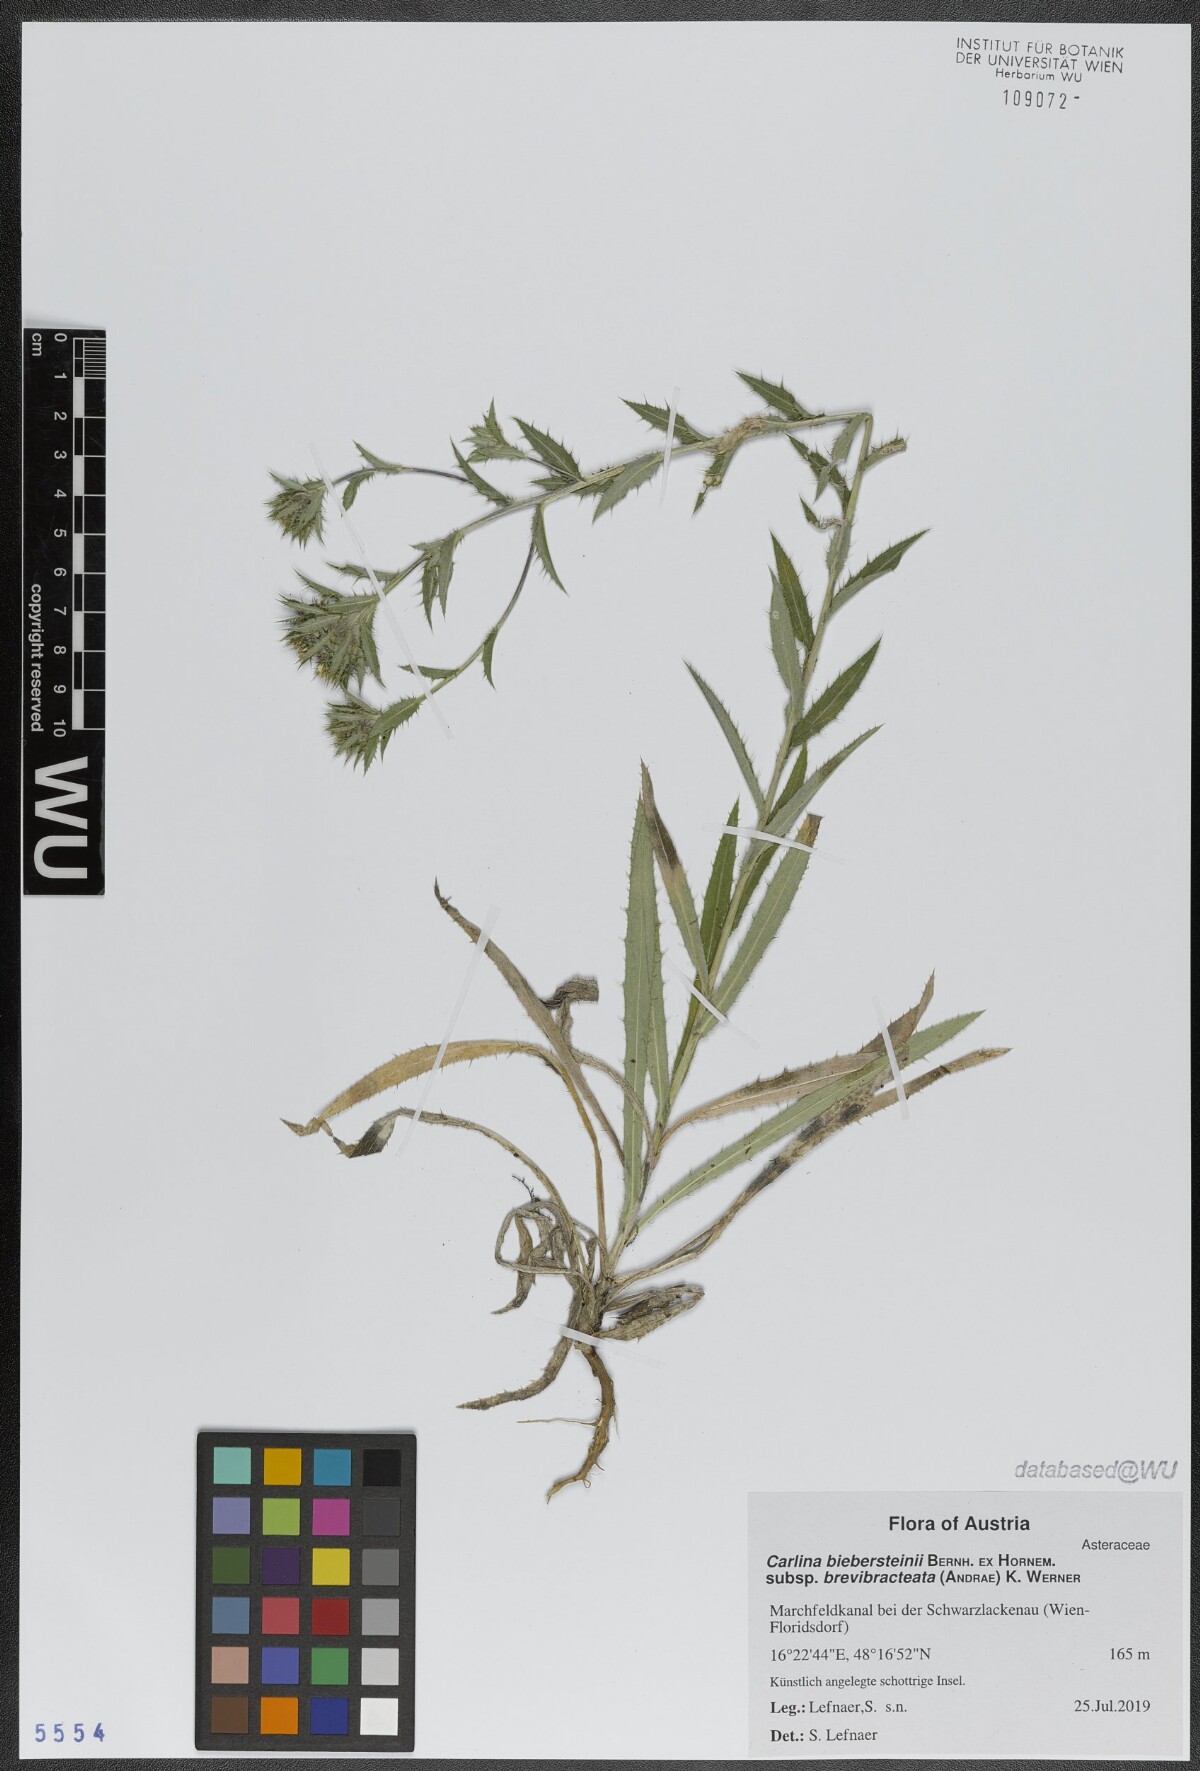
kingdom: Plantae
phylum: Tracheophyta
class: Magnoliopsida
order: Asterales
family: Asteraceae
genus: Carlina
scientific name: Carlina biebersteinii
